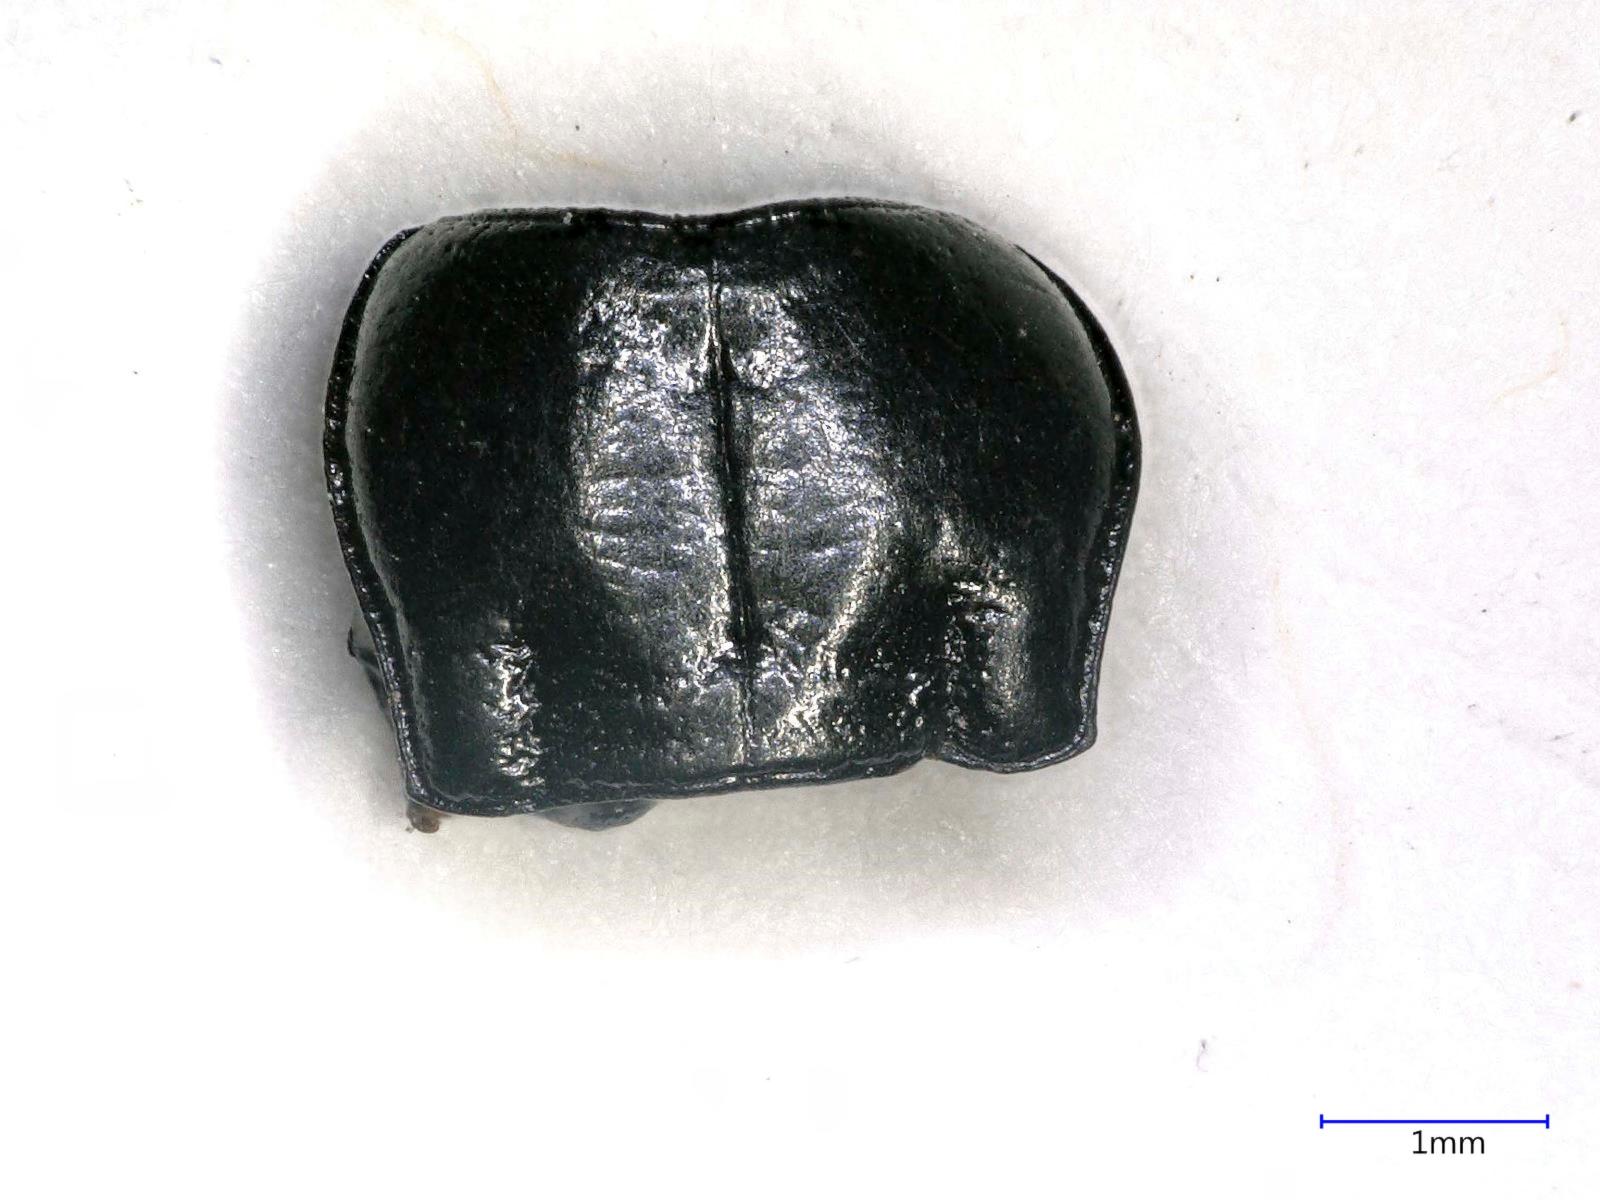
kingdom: Animalia
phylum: Arthropoda
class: Insecta
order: Coleoptera
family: Carabidae
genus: Anisodactylus
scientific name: Anisodactylus
